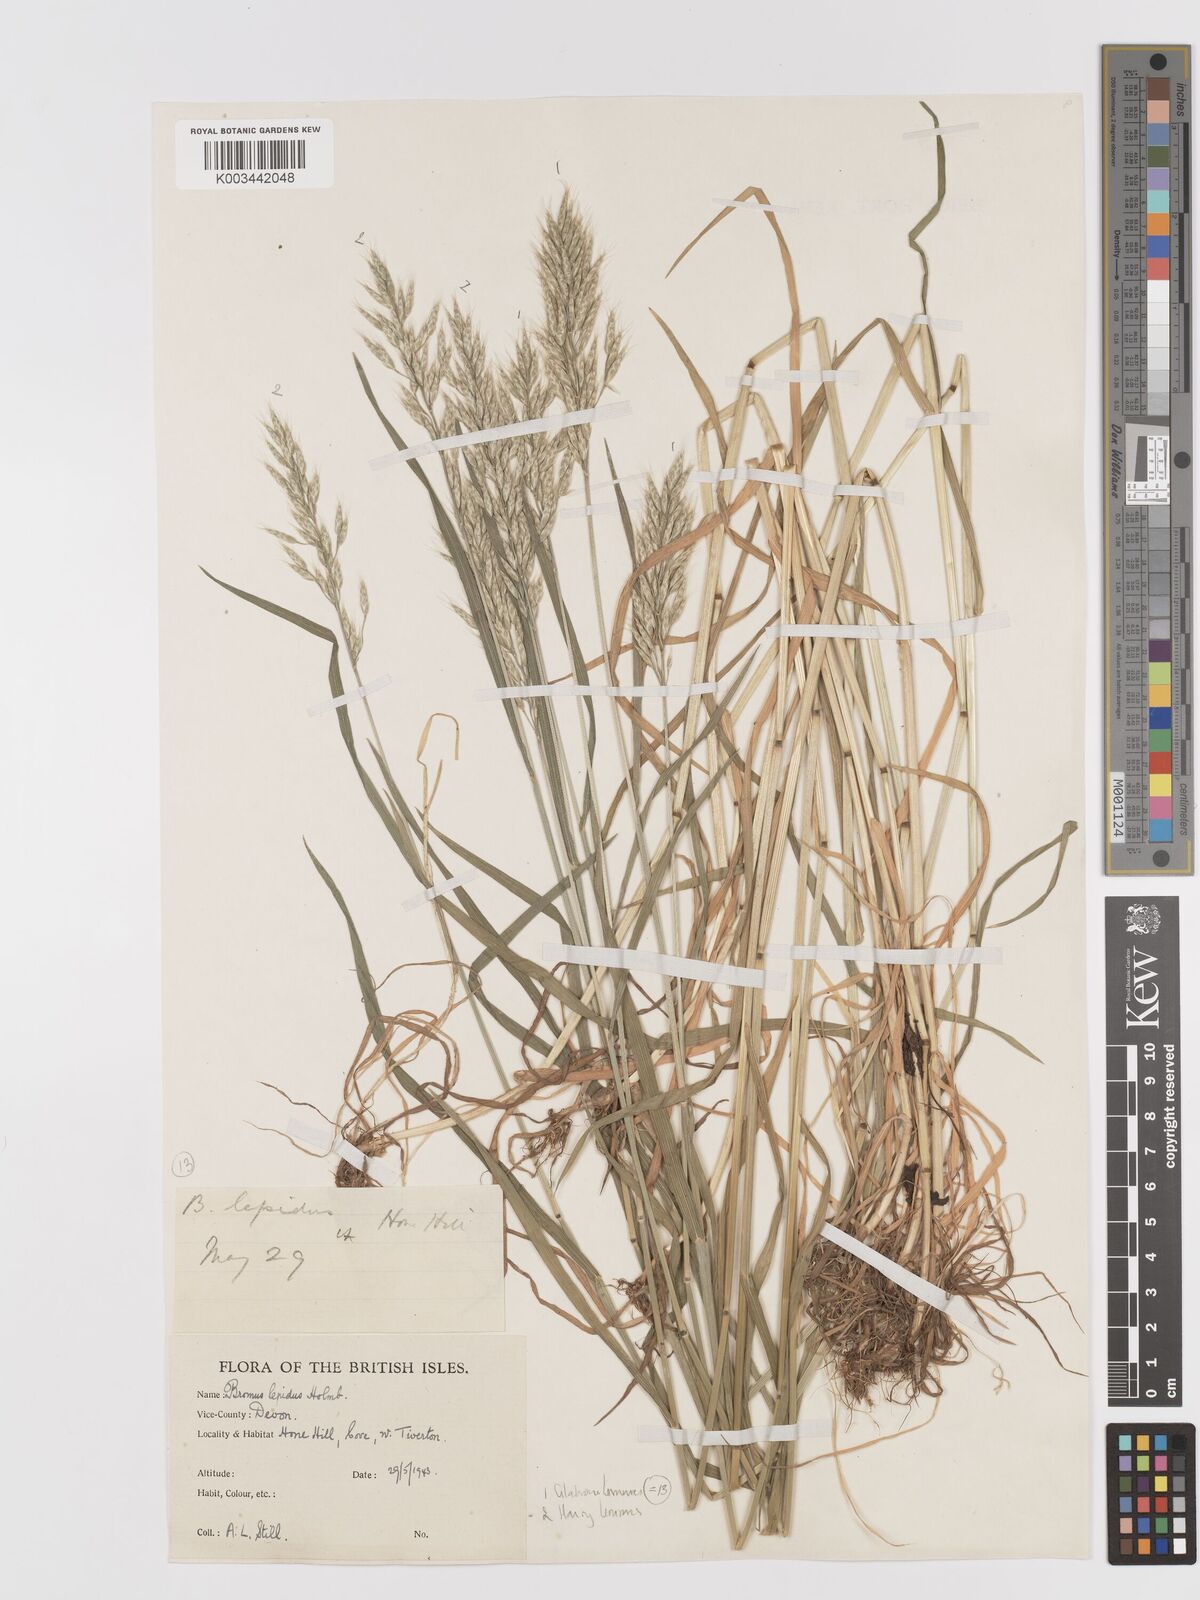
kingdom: Plantae
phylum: Tracheophyta
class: Liliopsida
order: Poales
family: Poaceae
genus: Bromus
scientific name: Bromus lepidus
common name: Slender soft-brome
